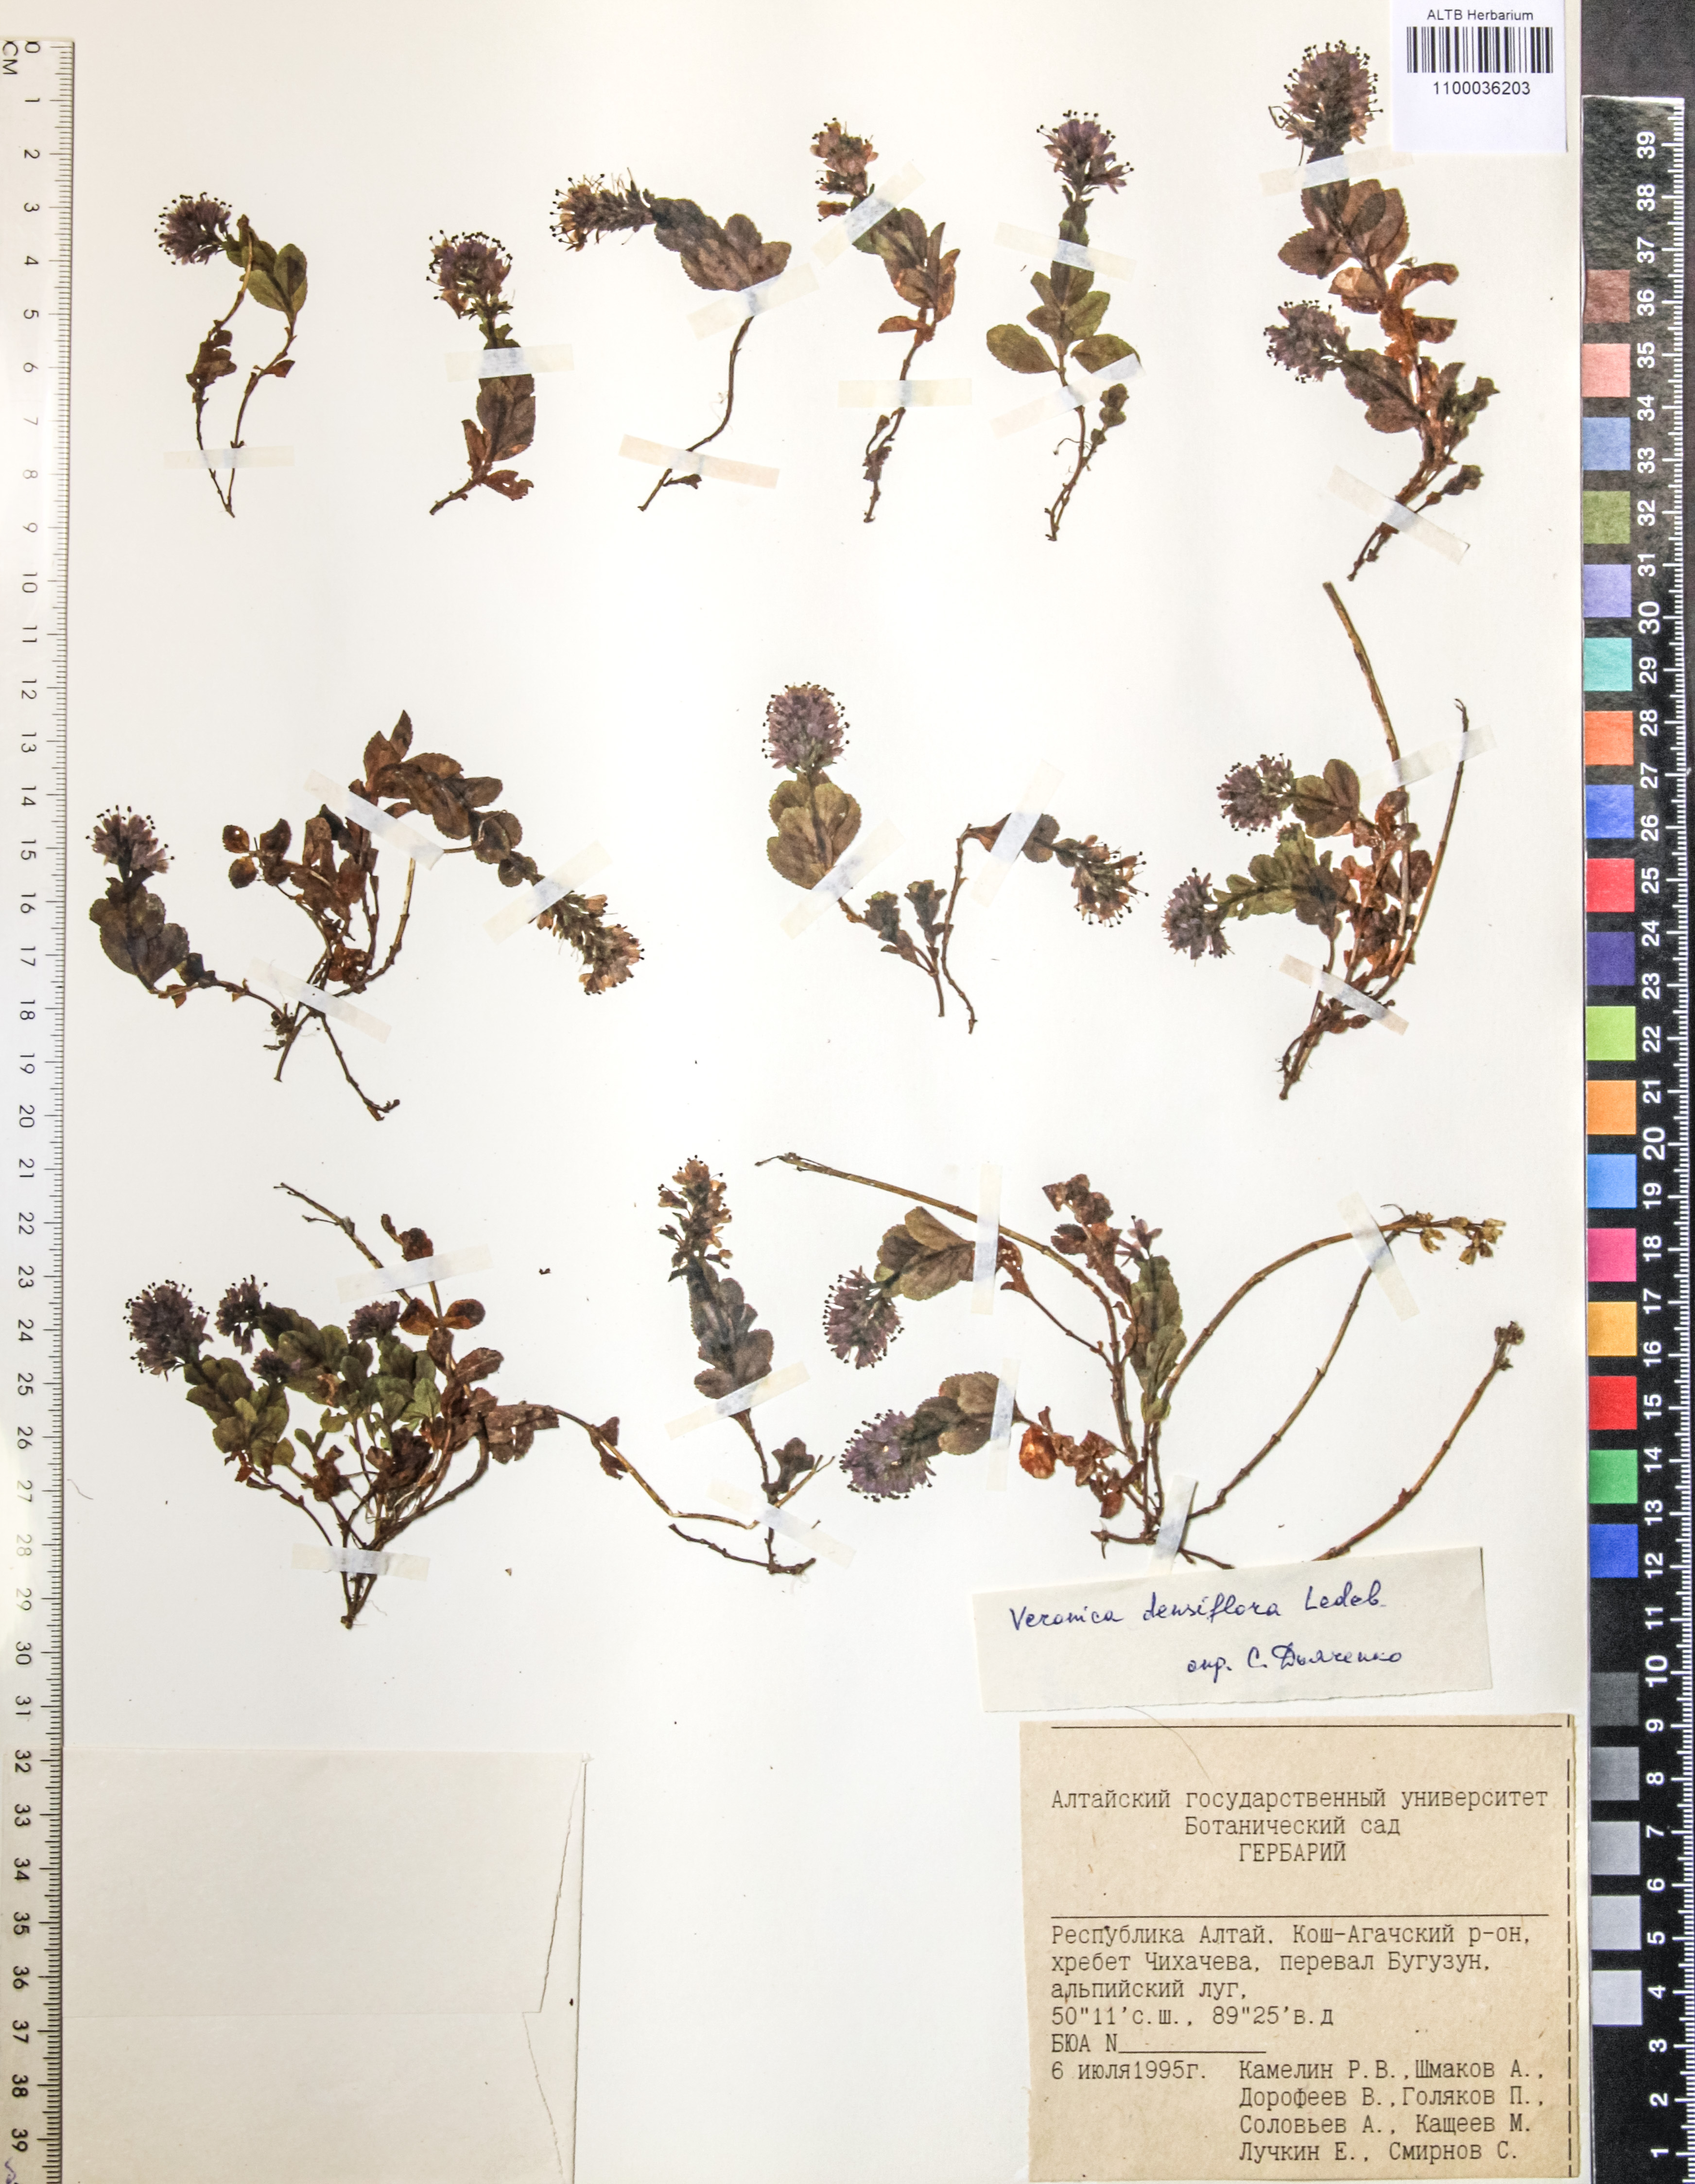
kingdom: Plantae
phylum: Tracheophyta
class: Magnoliopsida
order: Lamiales
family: Plantaginaceae
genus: Veronica
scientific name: Veronica densiflora
